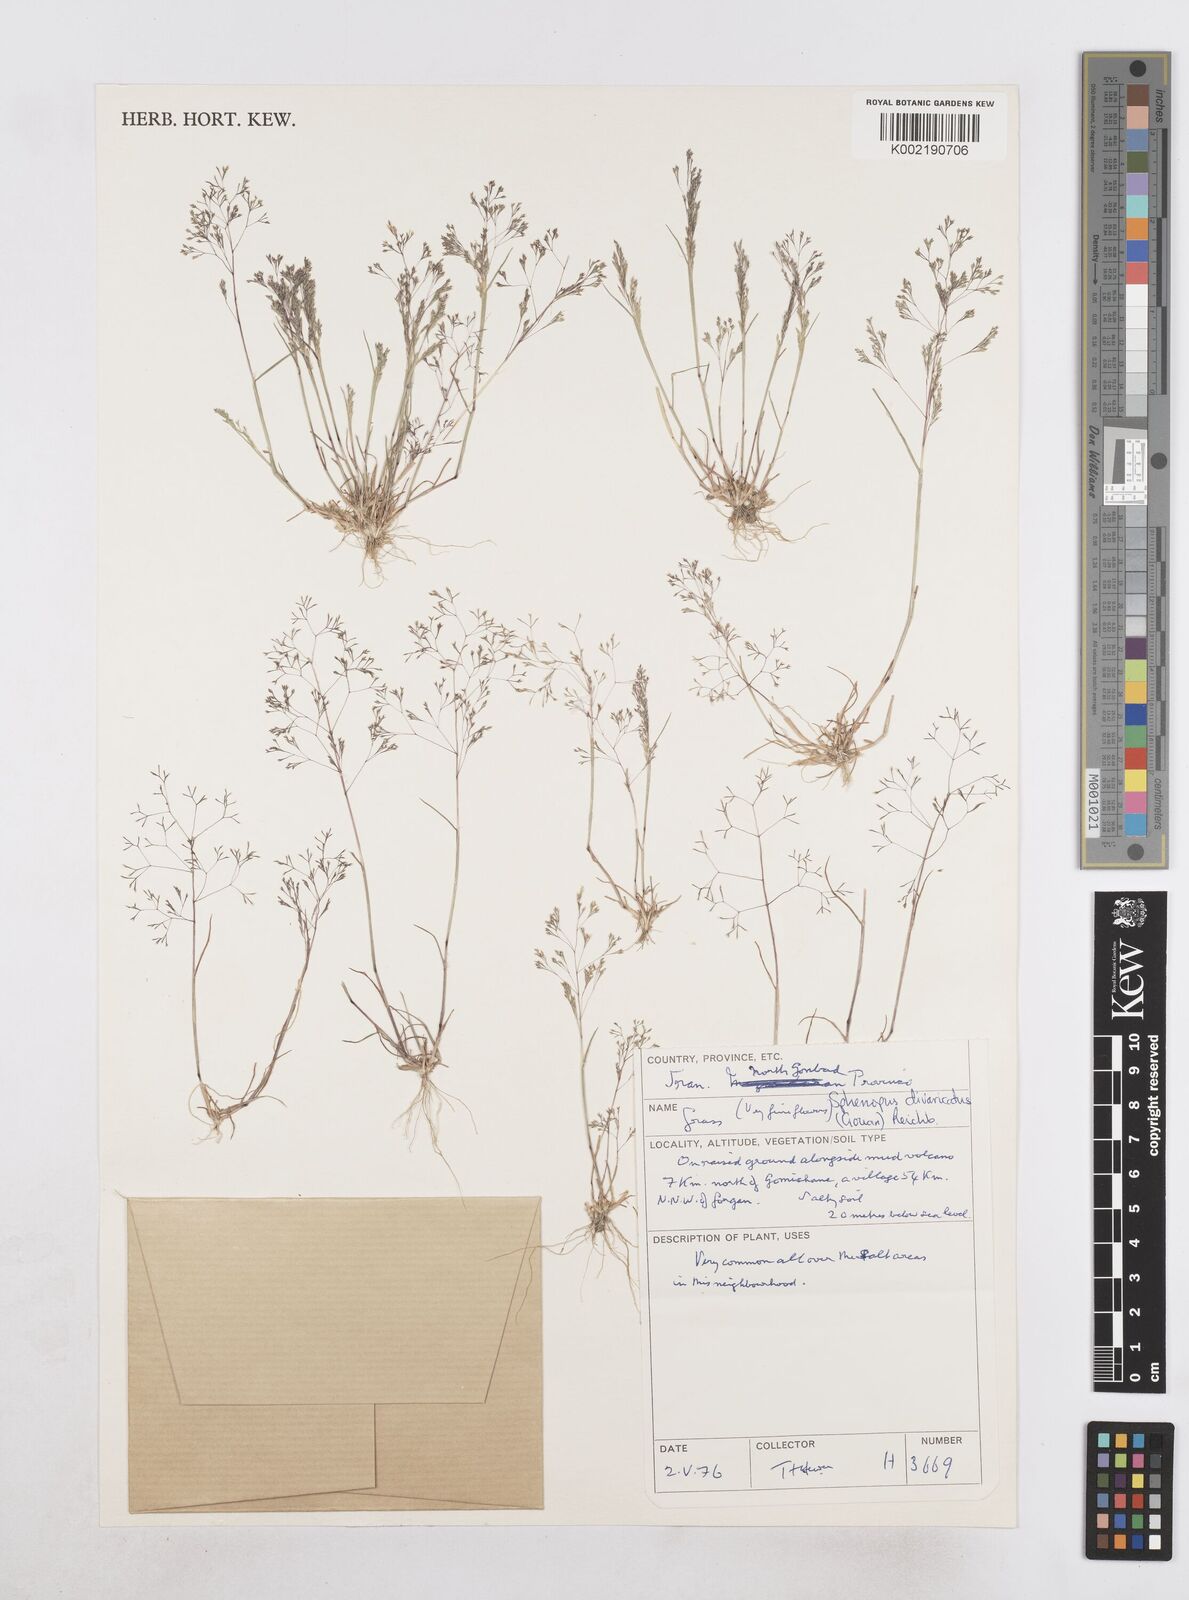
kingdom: Plantae
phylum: Tracheophyta
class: Liliopsida
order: Poales
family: Poaceae
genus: Sphenopus
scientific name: Sphenopus divaricatus
